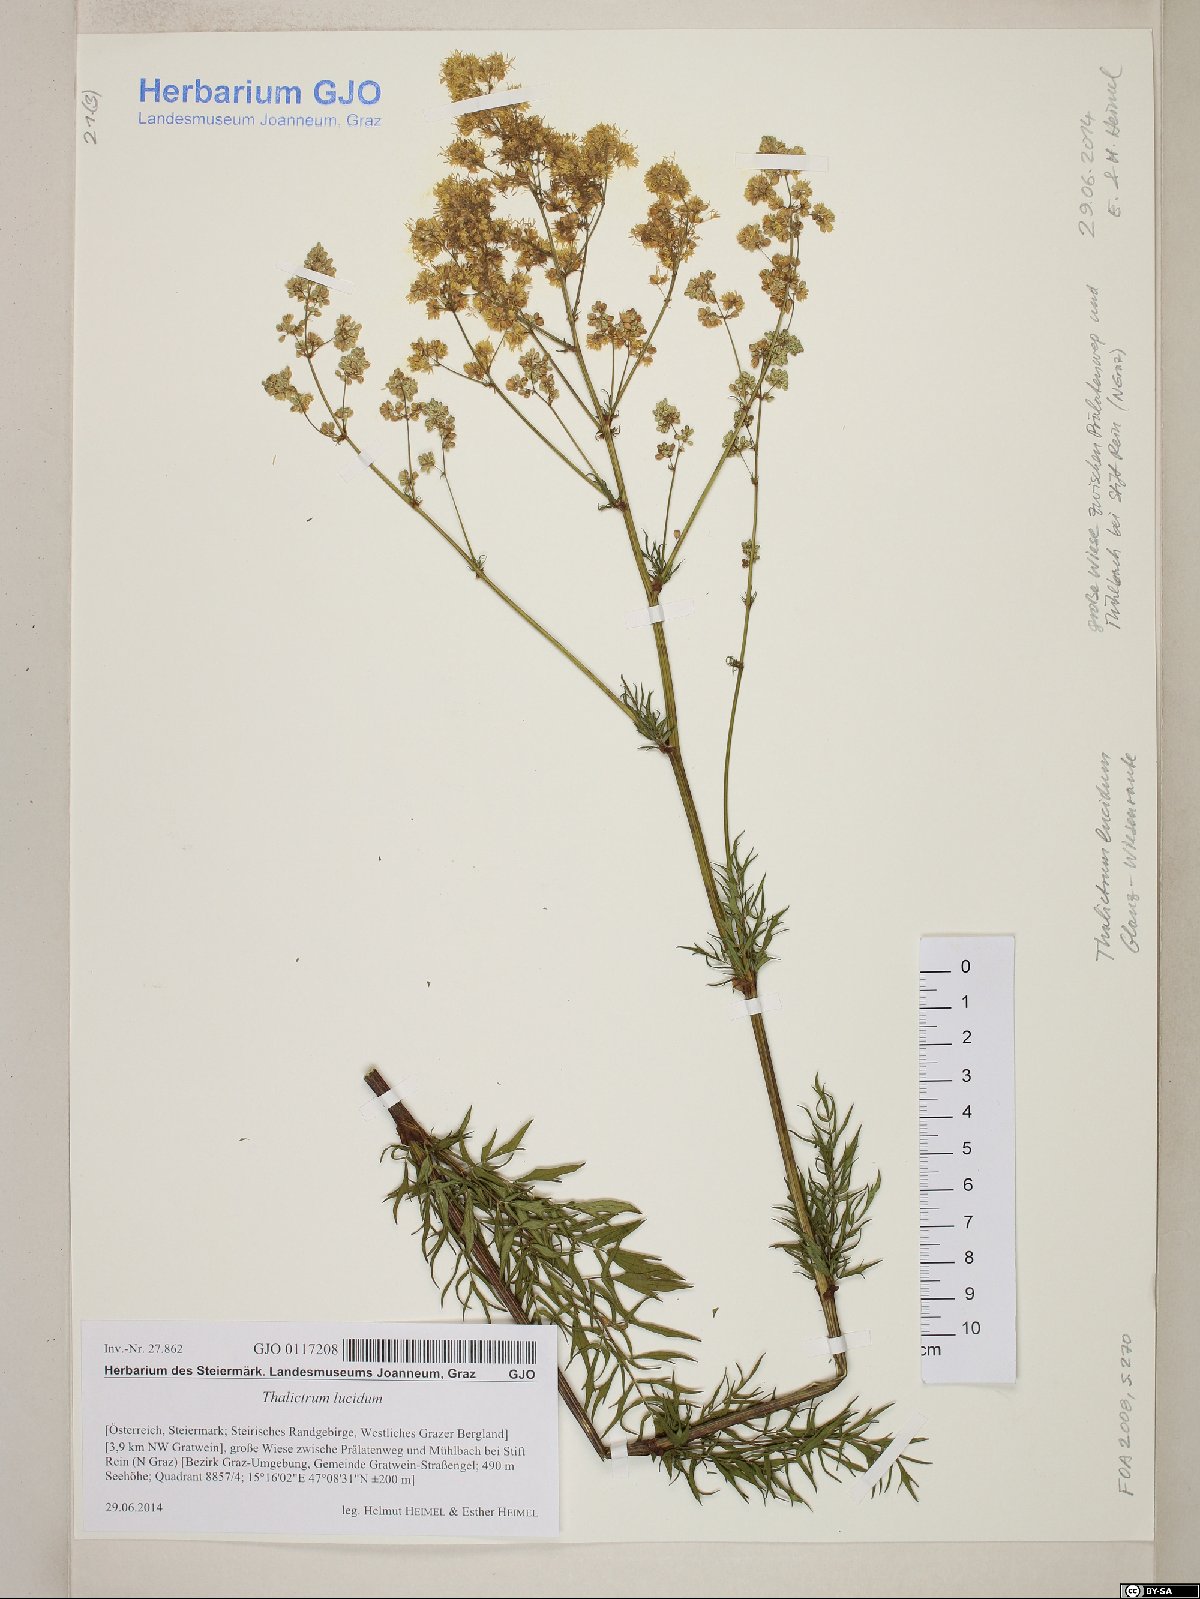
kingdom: Plantae
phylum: Tracheophyta
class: Magnoliopsida
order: Ranunculales
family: Ranunculaceae
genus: Thalictrum
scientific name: Thalictrum lucidum
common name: Shining meadow-rue
